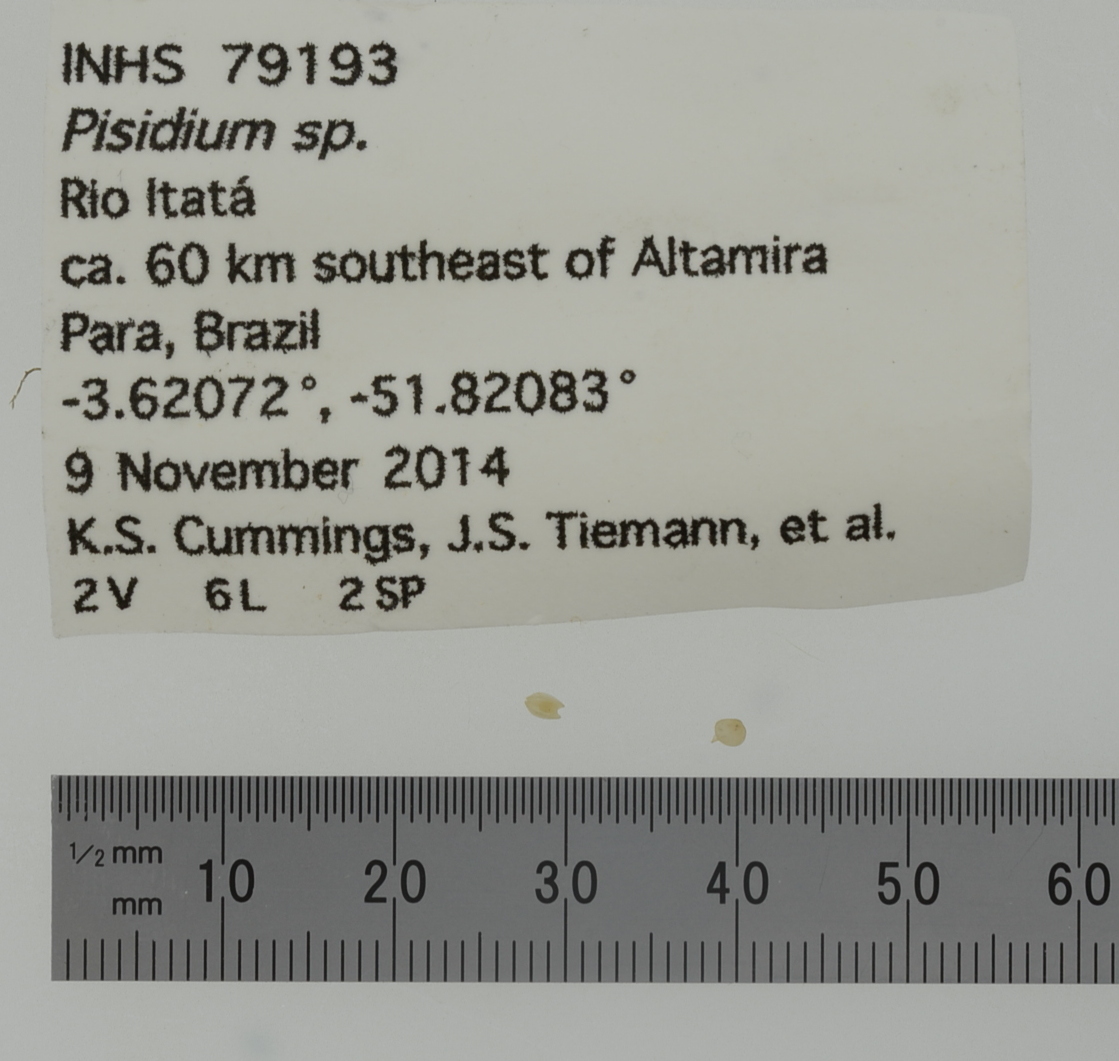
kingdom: Animalia
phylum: Mollusca
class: Bivalvia
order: Sphaeriida
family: Sphaeriidae
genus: Pisidium
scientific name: Pisidium
